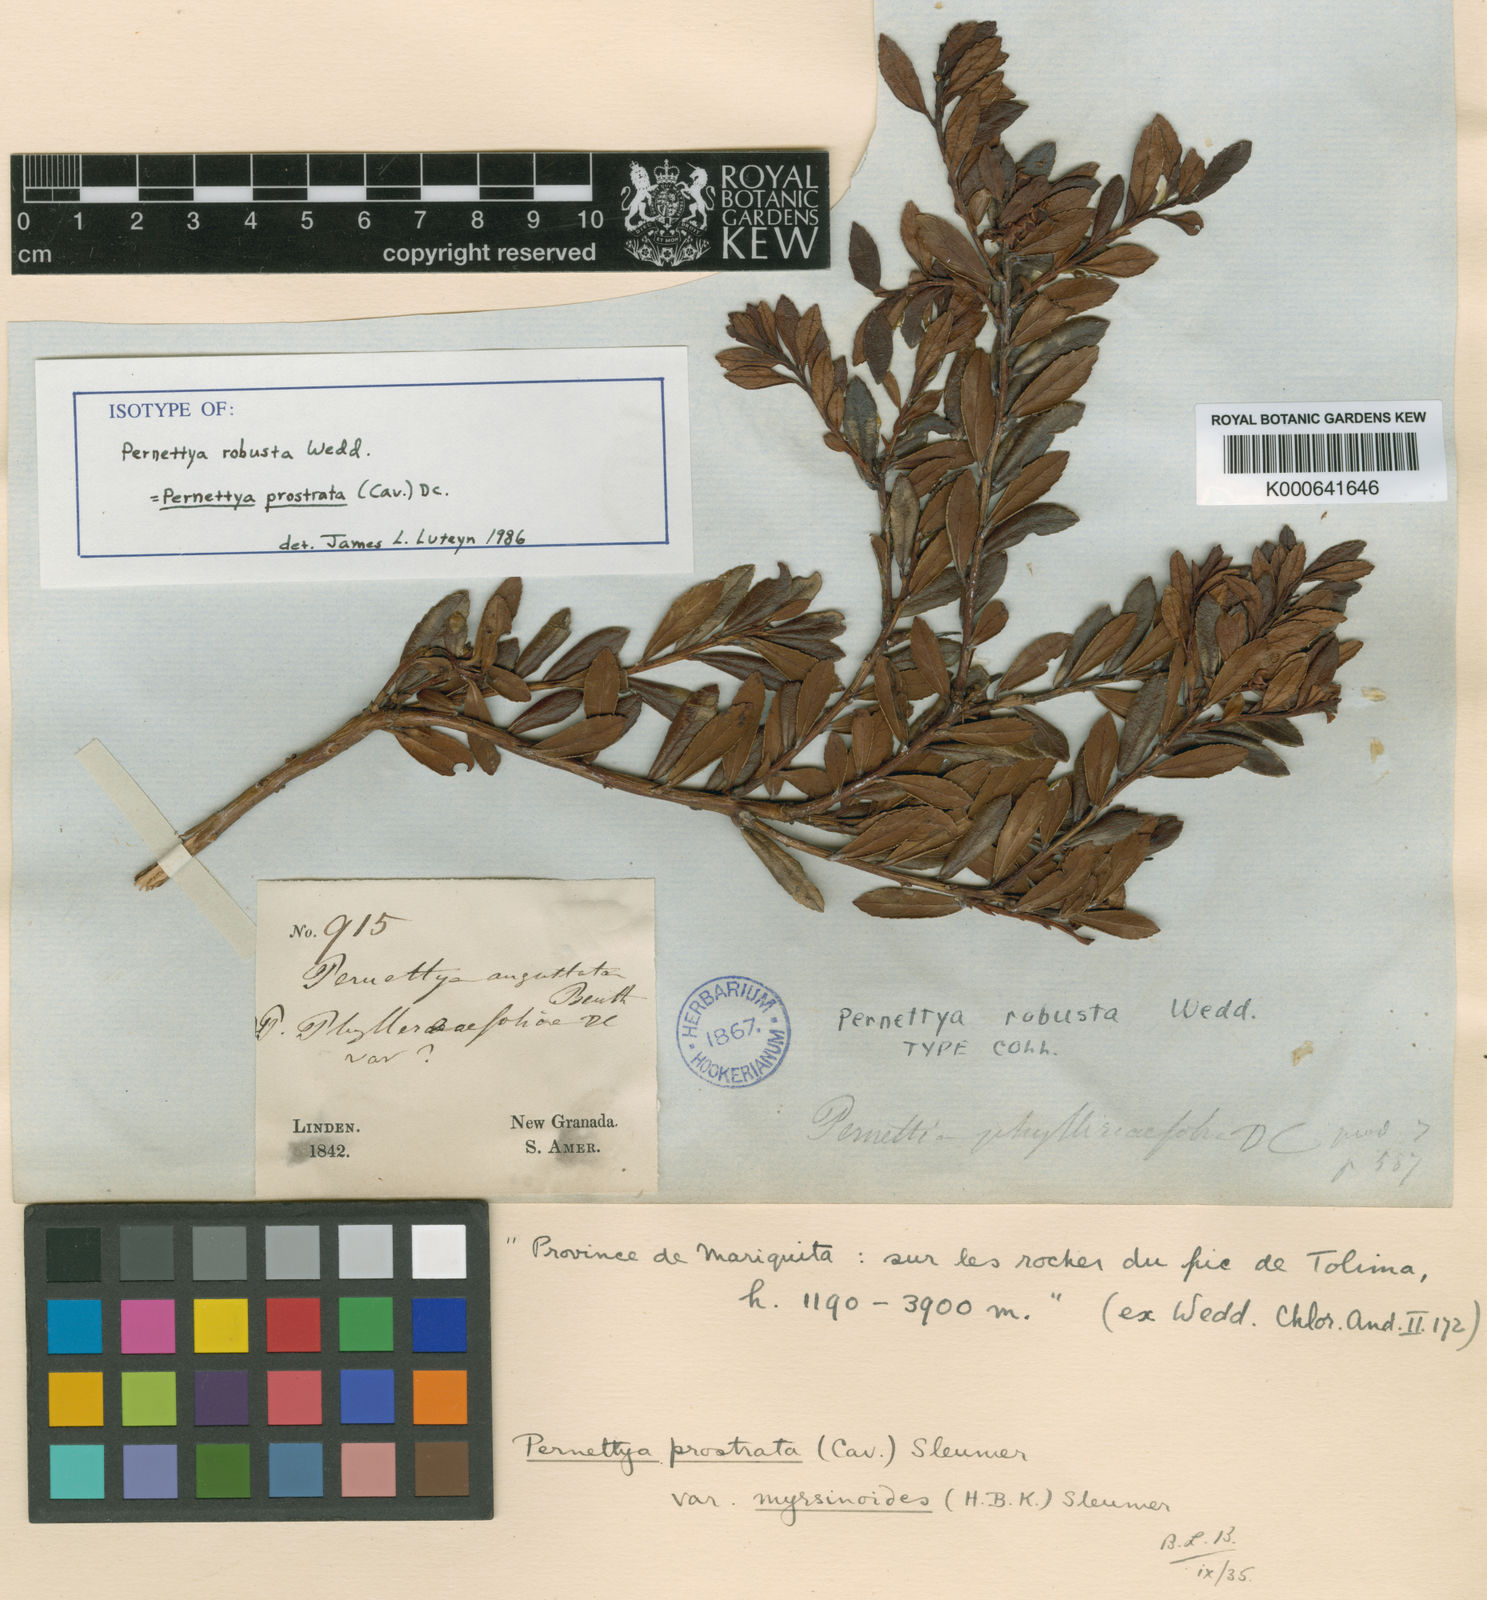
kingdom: Plantae
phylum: Tracheophyta
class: Magnoliopsida
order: Ericales
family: Ericaceae
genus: Gaultheria
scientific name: Gaultheria myrsinoides
